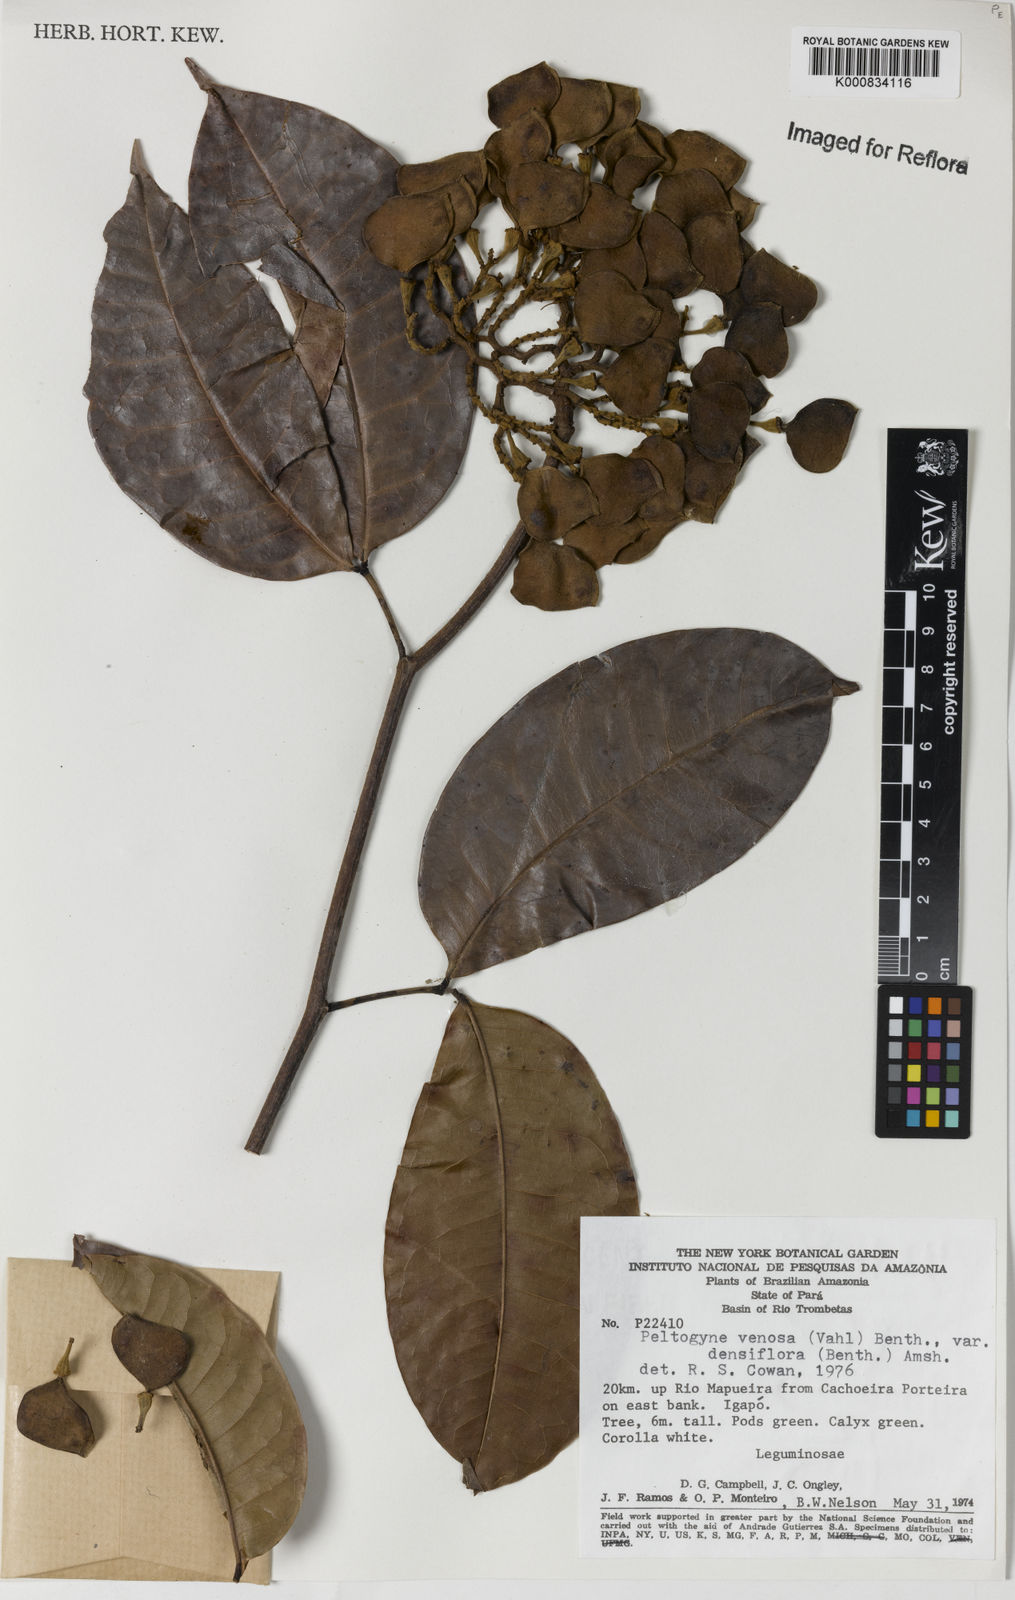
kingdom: Plantae
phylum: Tracheophyta
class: Magnoliopsida
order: Fabales
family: Fabaceae
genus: Peltogyne
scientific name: Peltogyne venosa
